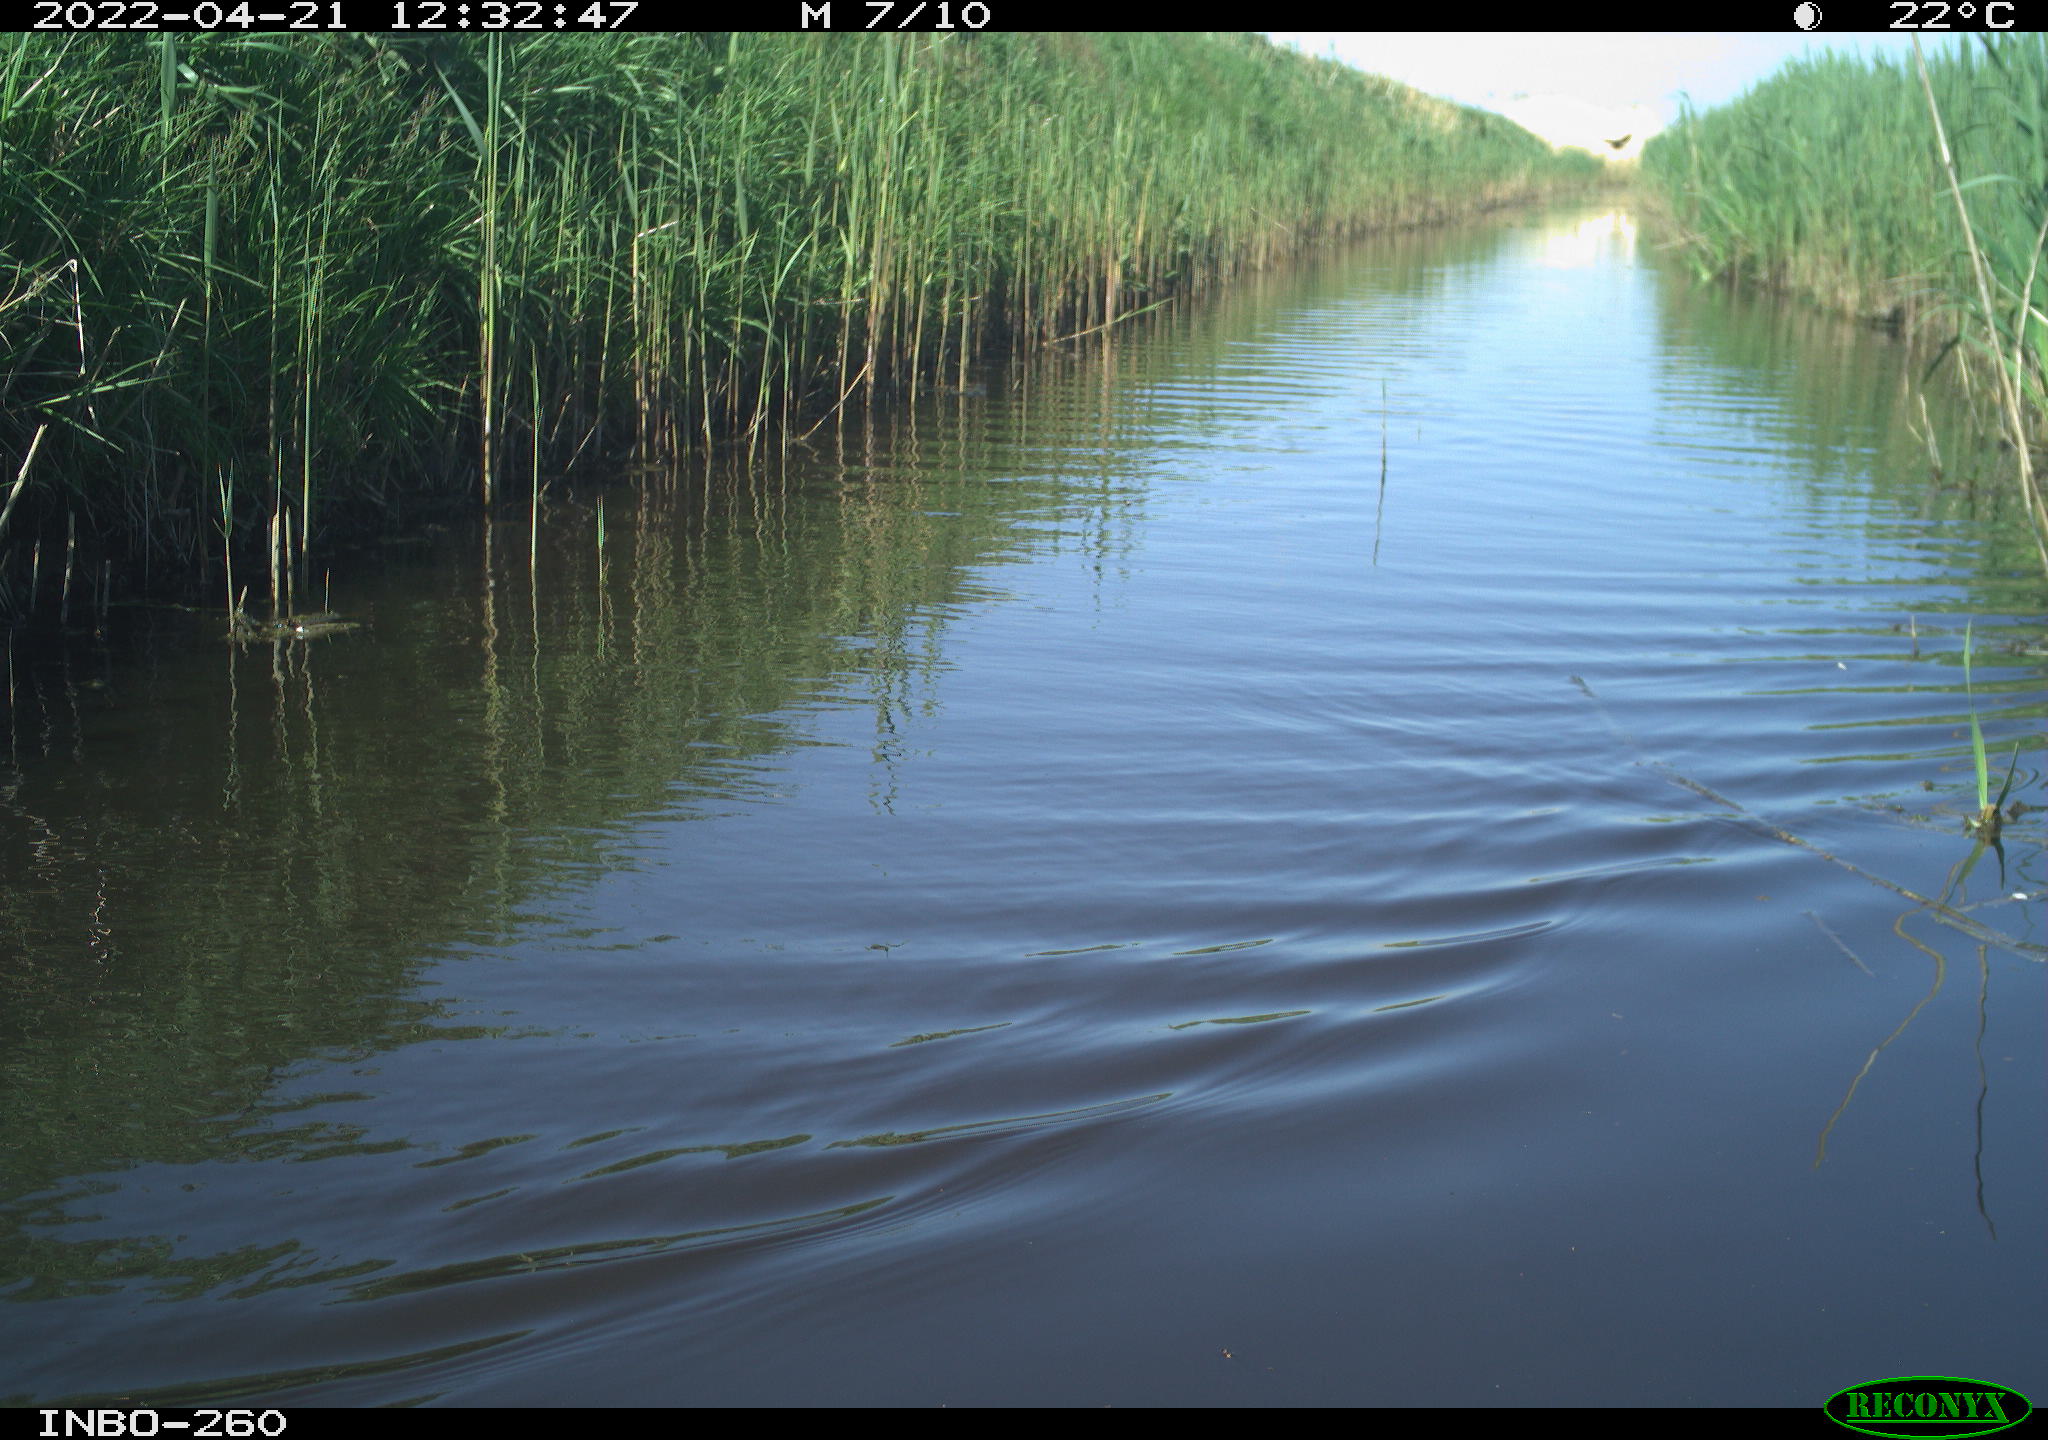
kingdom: Animalia
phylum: Chordata
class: Aves
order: Gruiformes
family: Rallidae
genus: Fulica
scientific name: Fulica atra
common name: Eurasian coot
